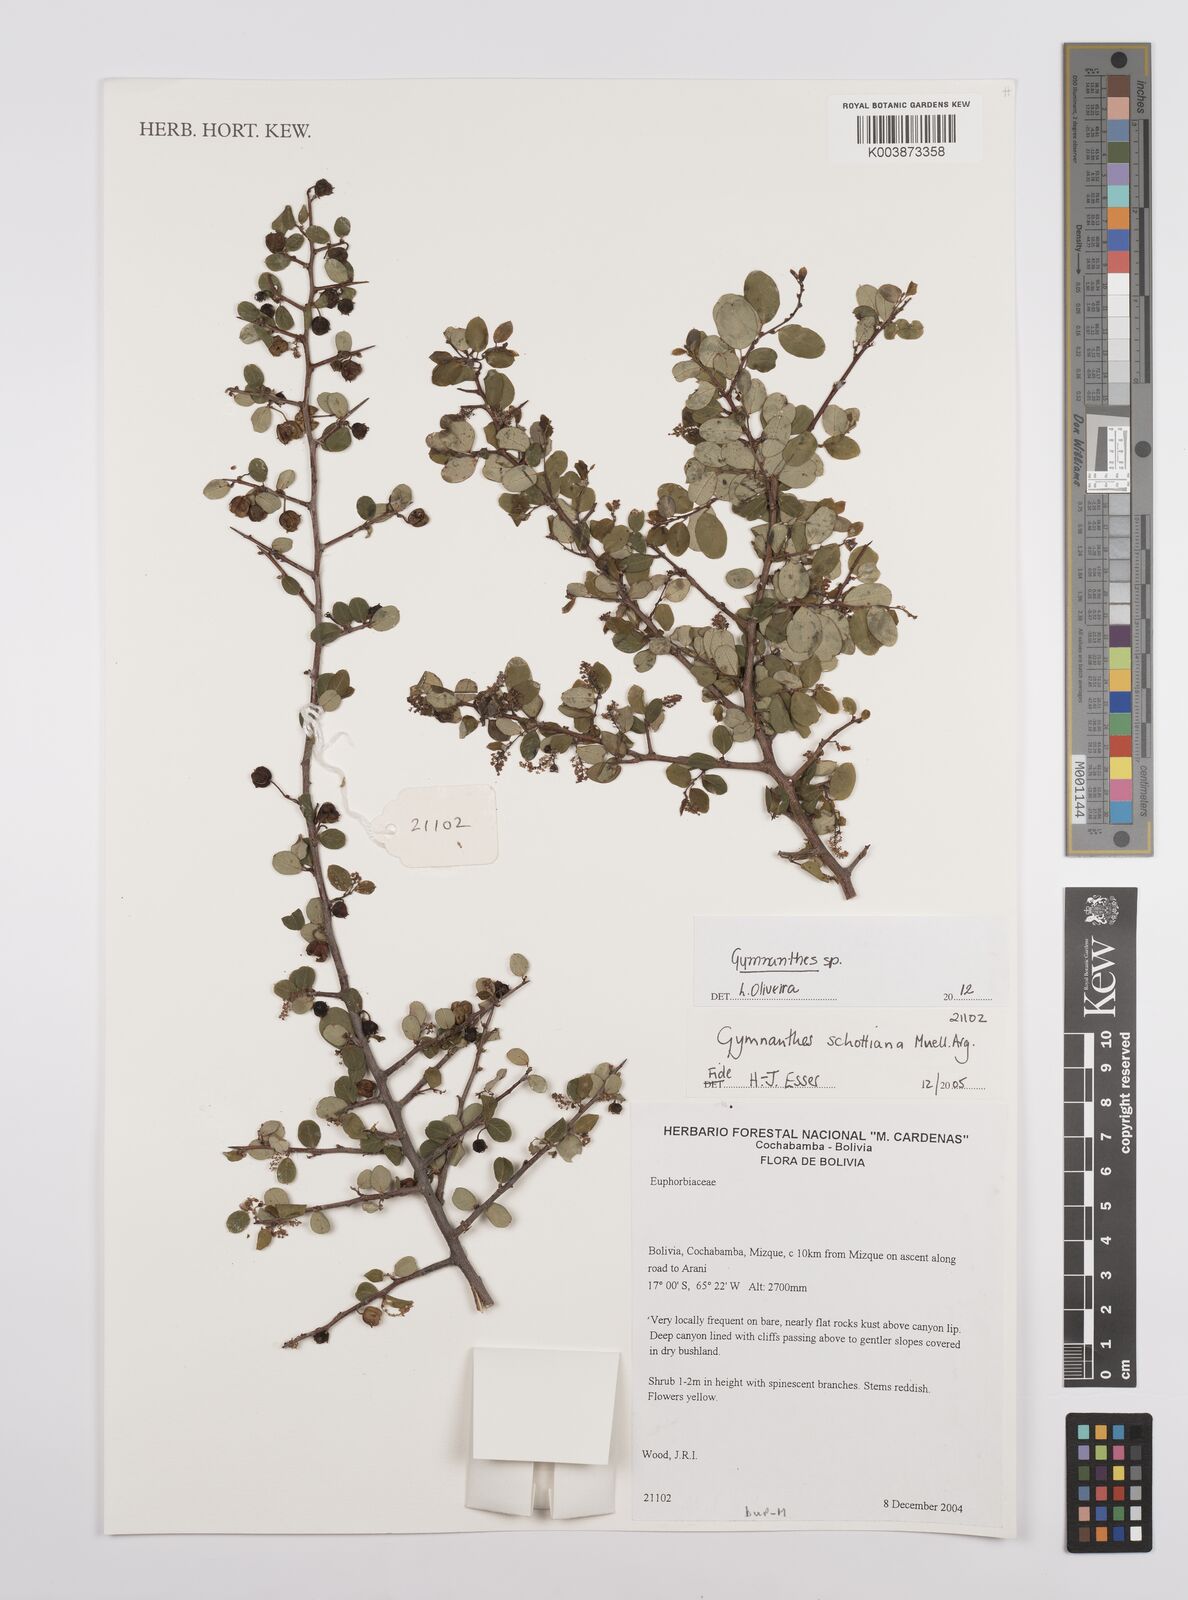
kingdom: Plantae
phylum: Tracheophyta
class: Magnoliopsida
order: Malpighiales
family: Euphorbiaceae
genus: Gymnanthes
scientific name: Gymnanthes
